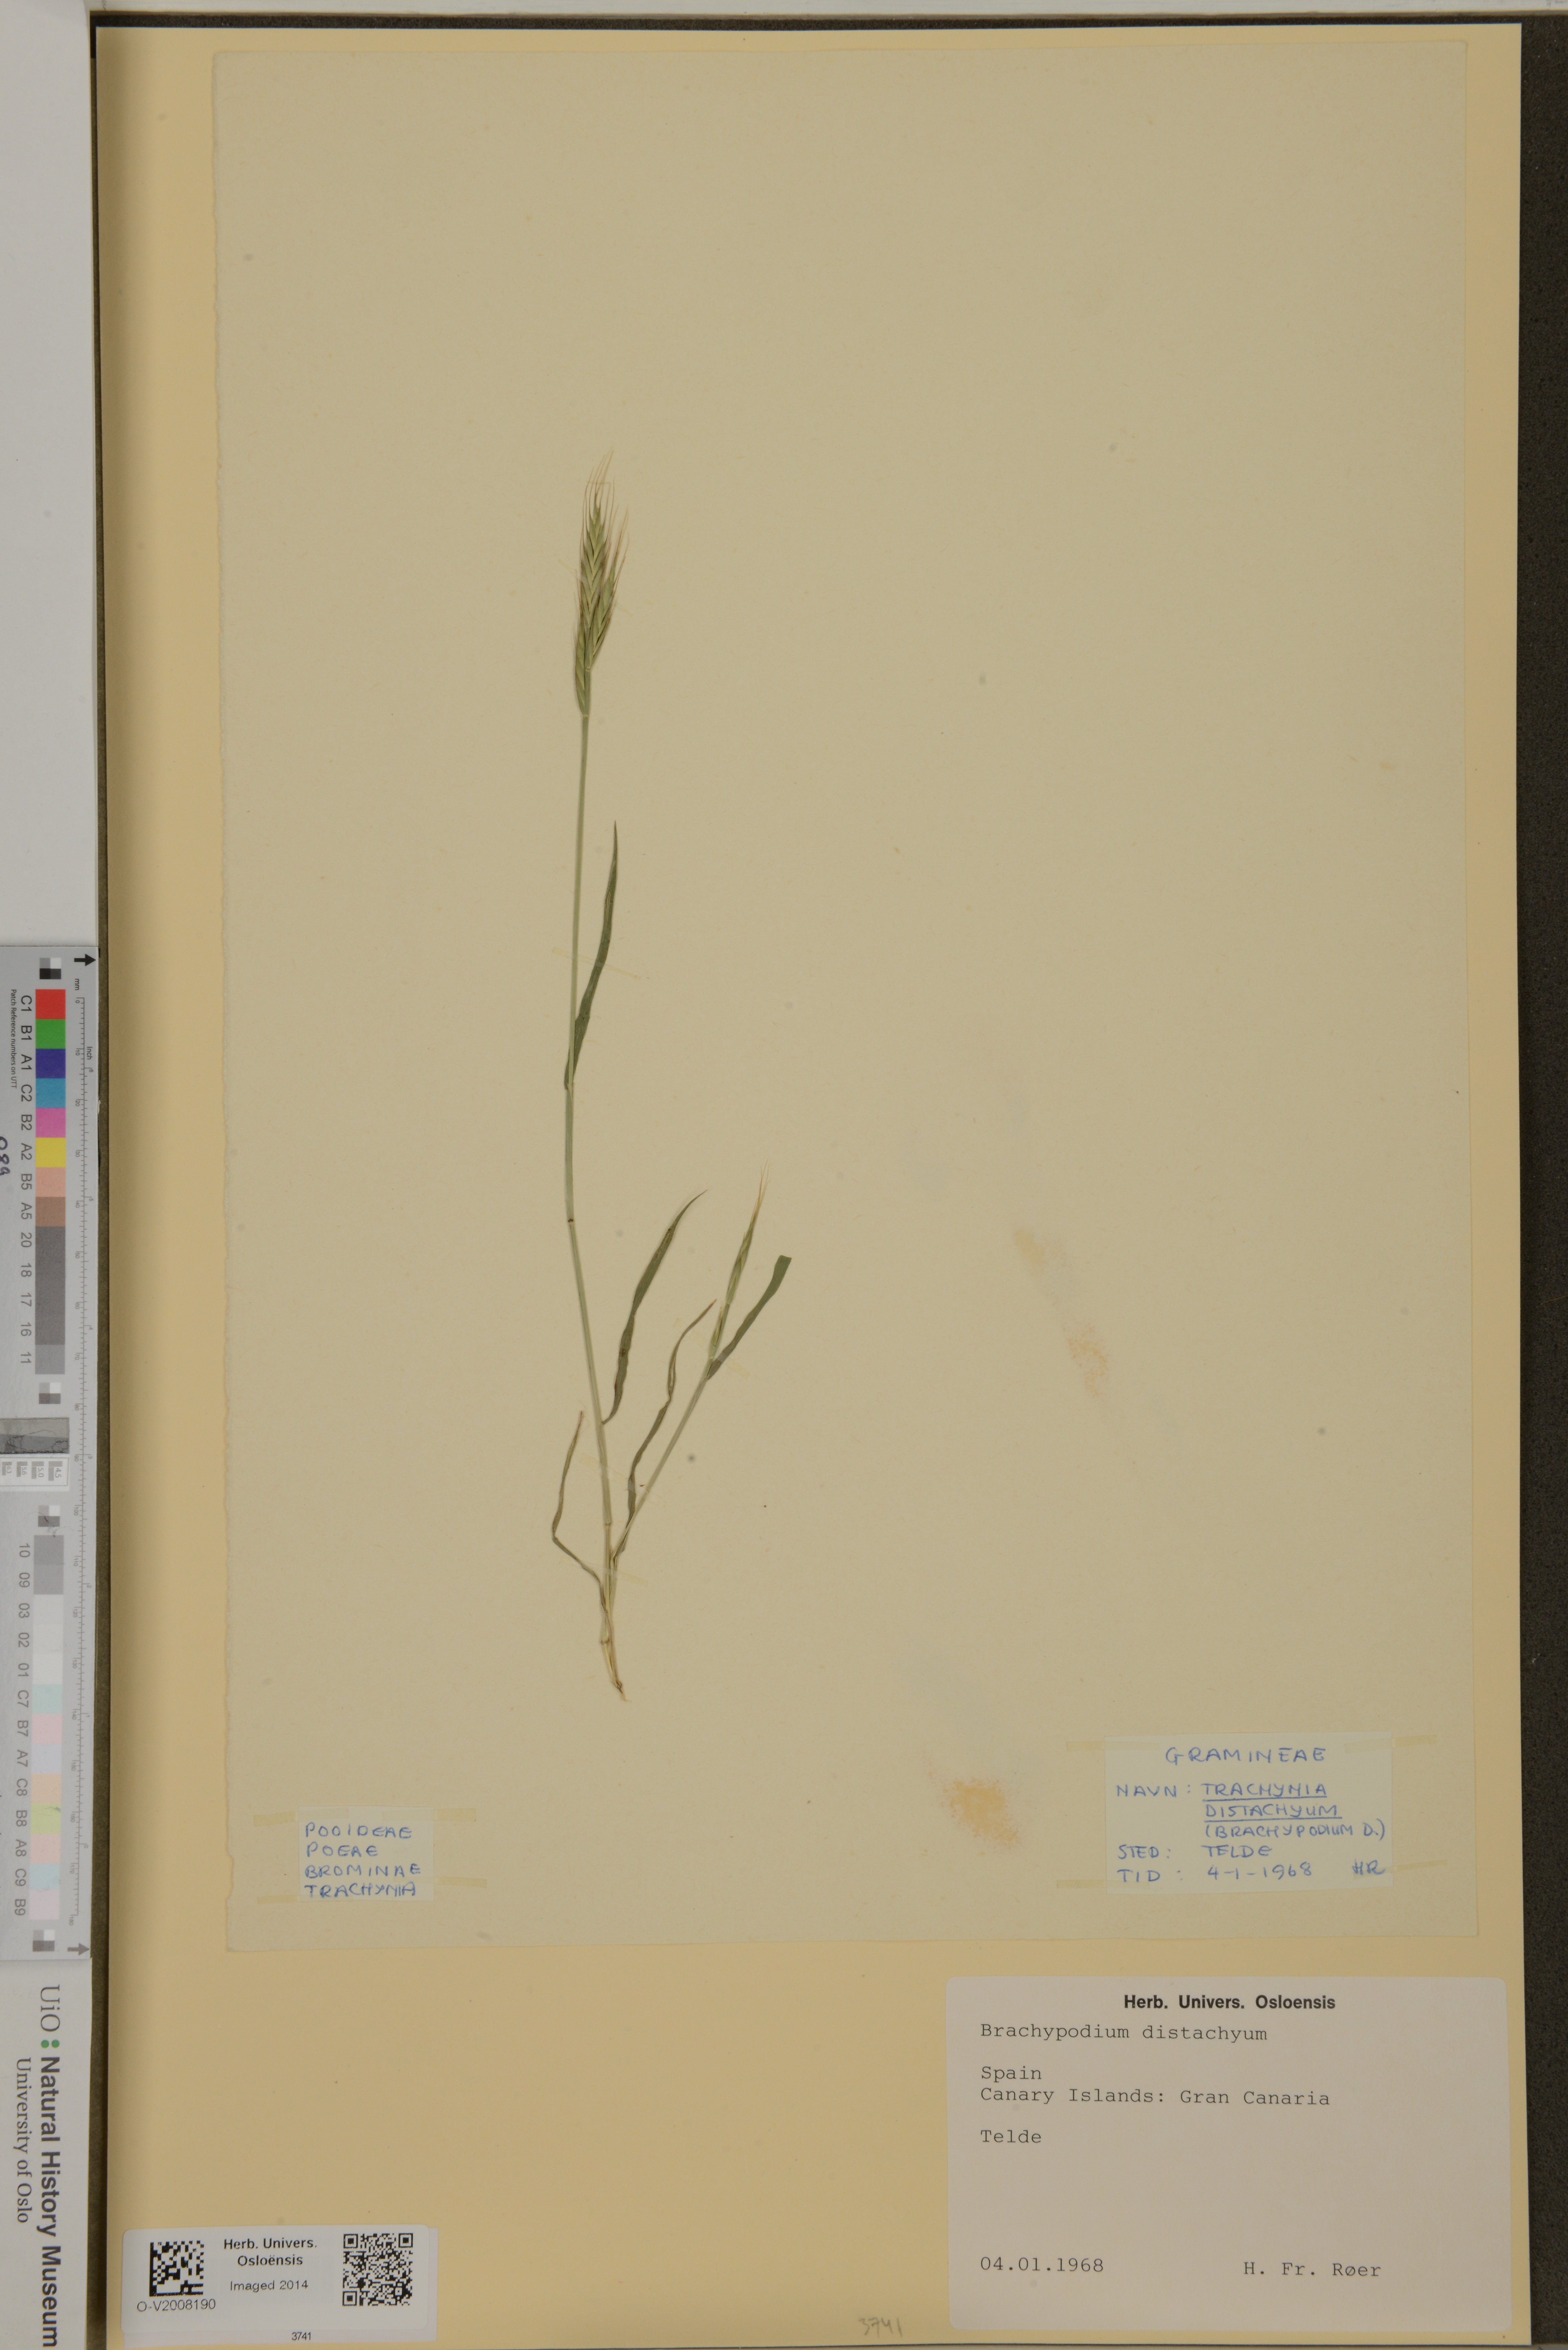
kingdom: Plantae
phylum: Tracheophyta
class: Liliopsida
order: Poales
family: Poaceae
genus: Brachypodium
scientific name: Brachypodium distachyon
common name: Stiff brome
